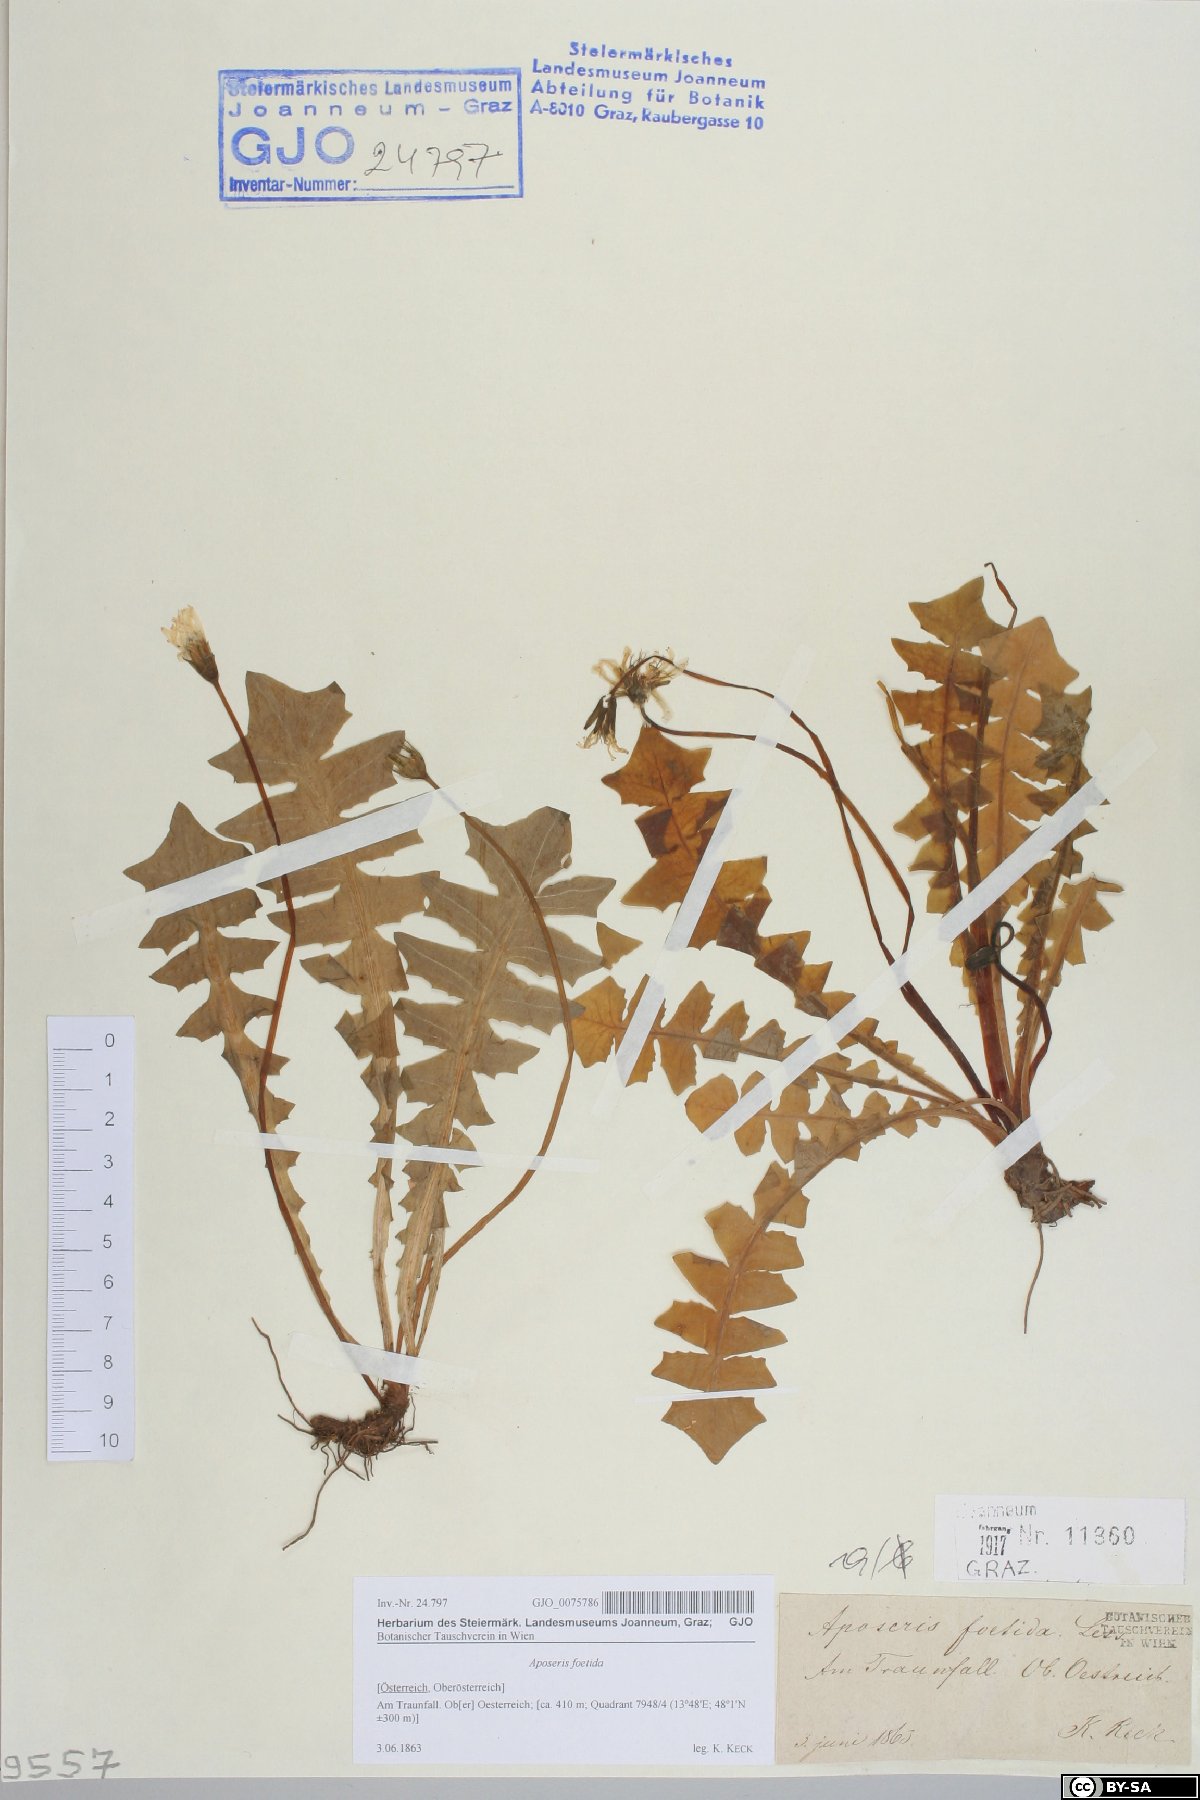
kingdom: Plantae
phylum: Tracheophyta
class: Magnoliopsida
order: Asterales
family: Asteraceae
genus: Aposeris
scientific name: Aposeris foetida
